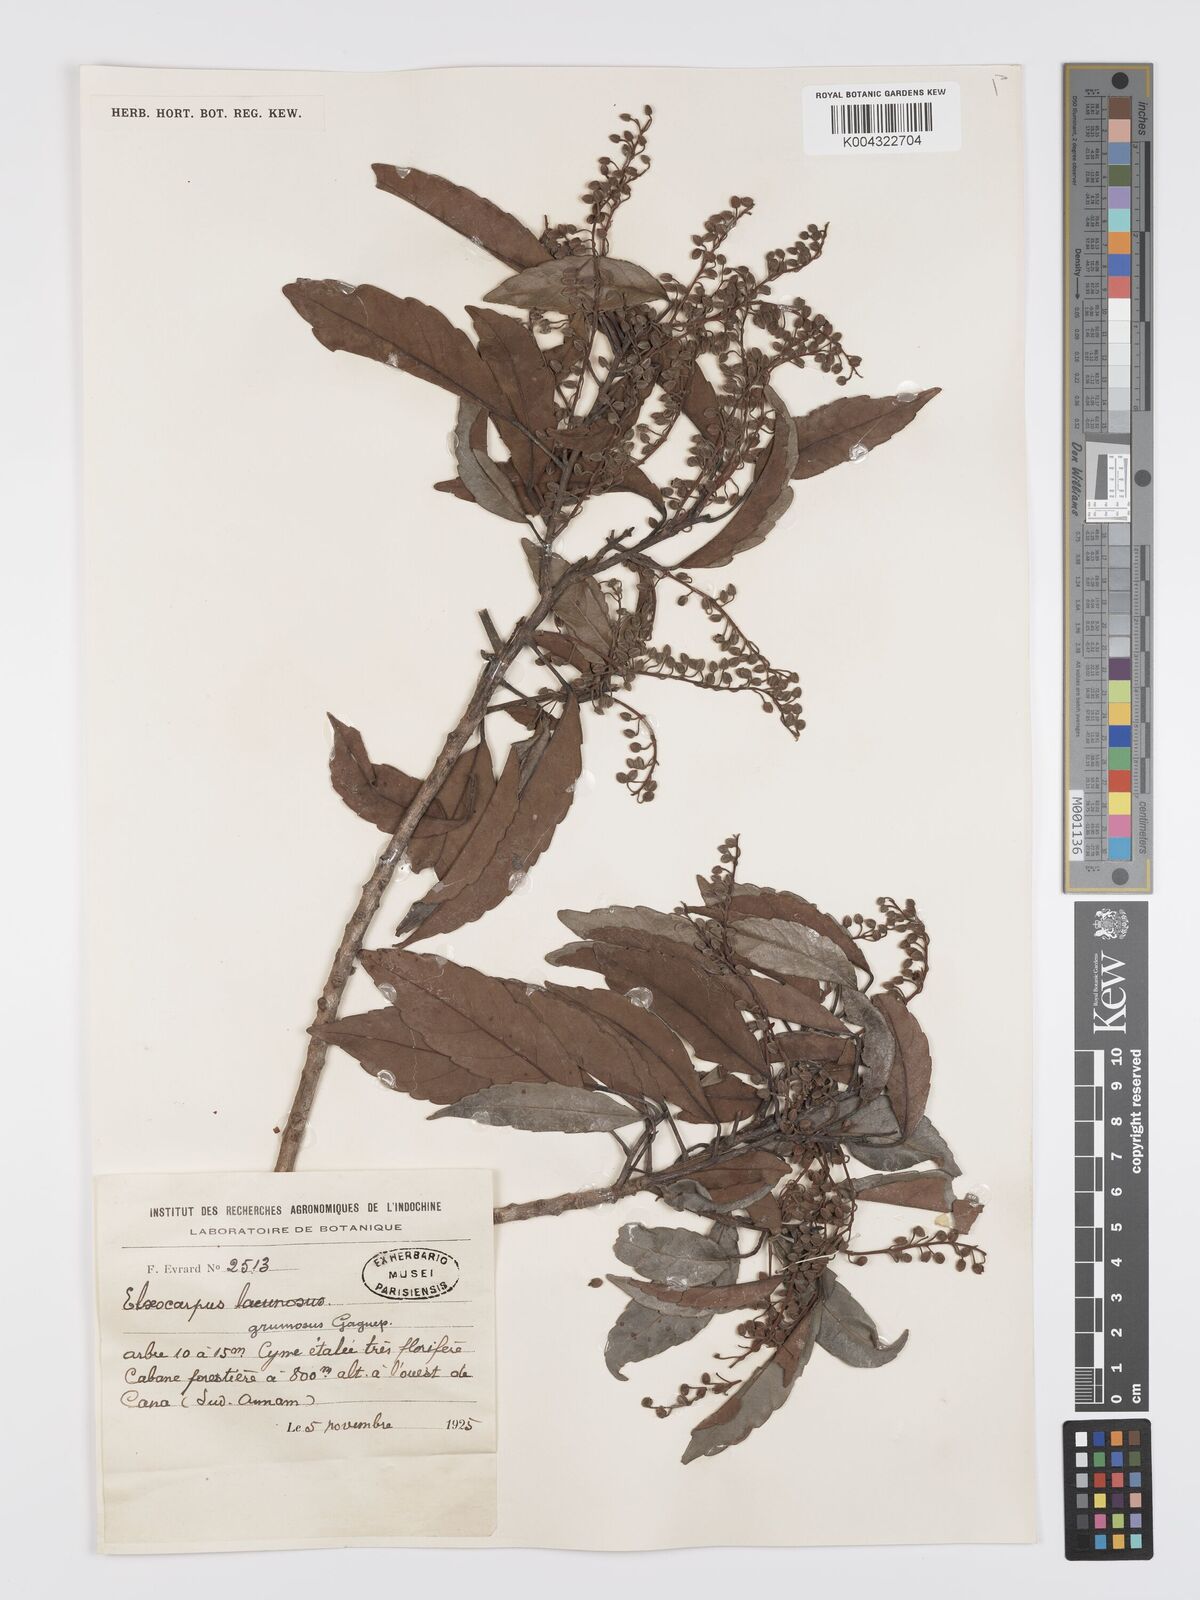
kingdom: Plantae
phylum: Tracheophyta
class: Magnoliopsida
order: Oxalidales
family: Elaeocarpaceae
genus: Elaeocarpus
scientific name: Elaeocarpus grumosus
